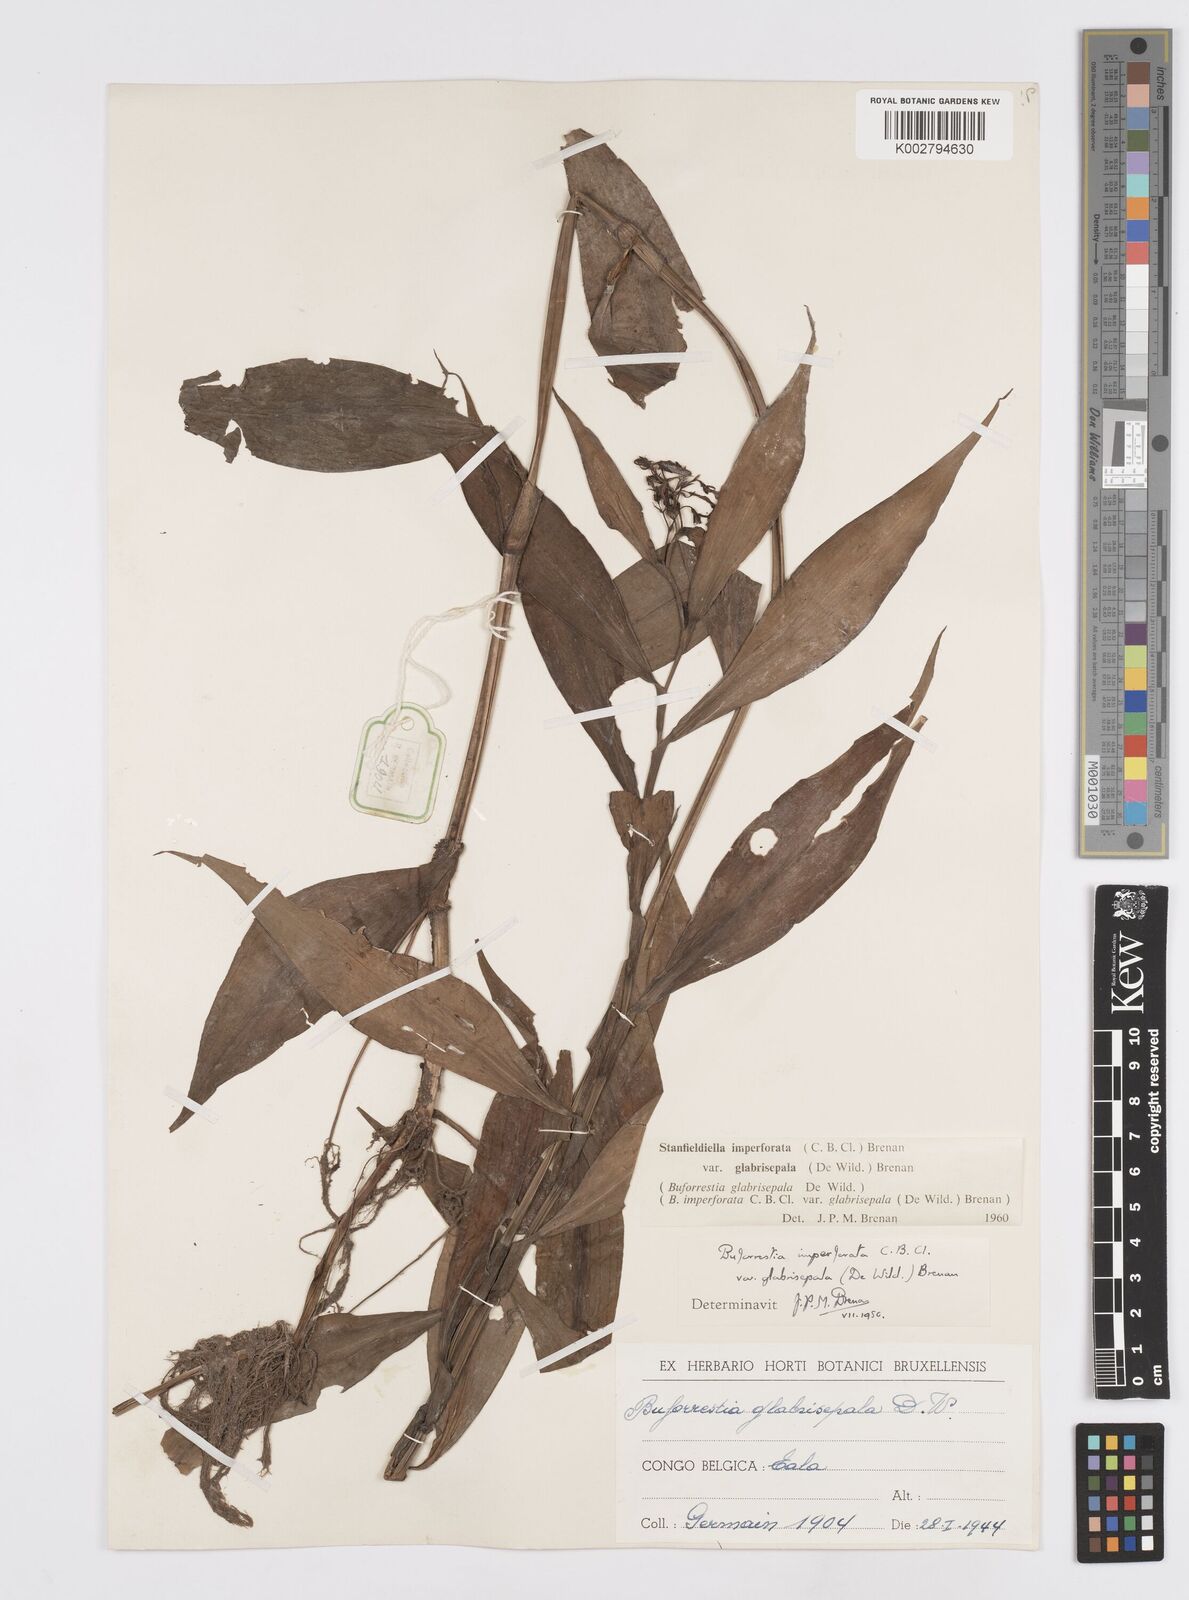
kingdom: Plantae
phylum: Tracheophyta
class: Liliopsida
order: Commelinales
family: Commelinaceae
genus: Stanfieldiella
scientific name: Stanfieldiella imperforata
